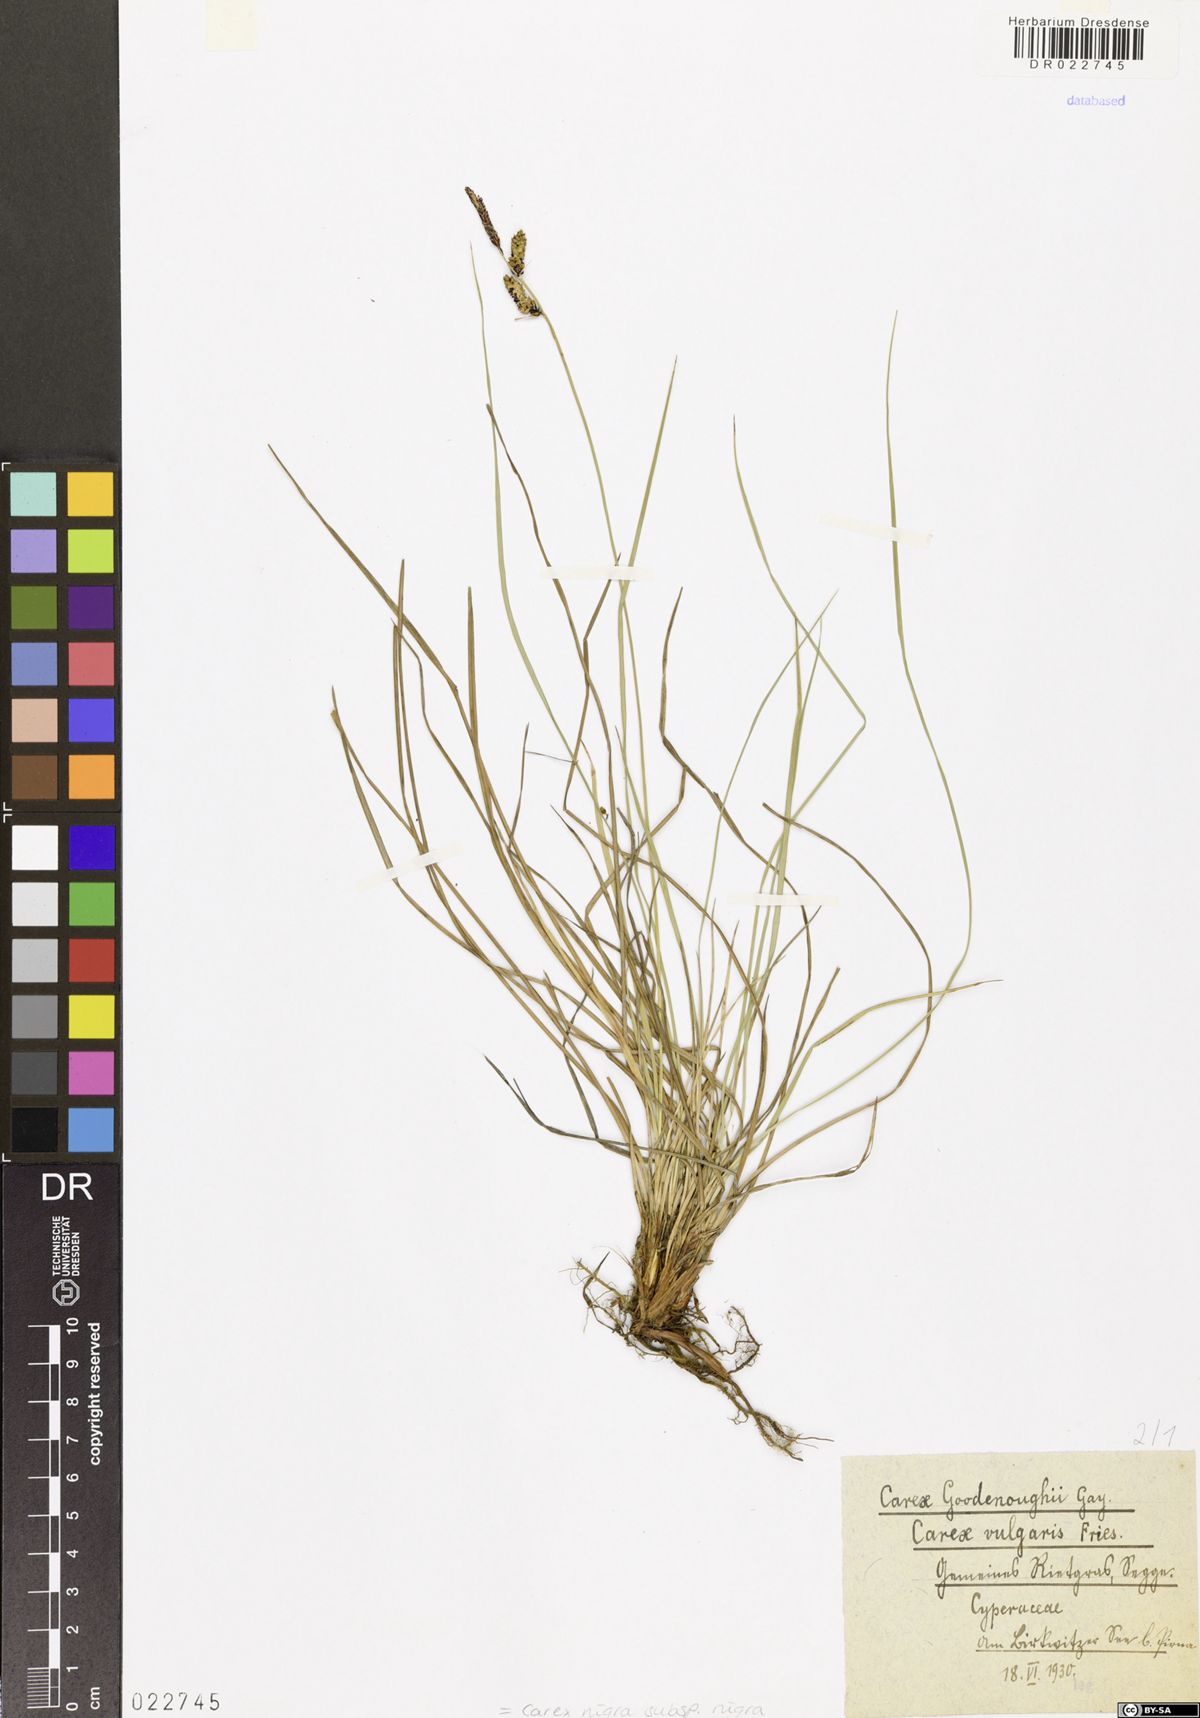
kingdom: Plantae
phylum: Tracheophyta
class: Liliopsida
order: Poales
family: Cyperaceae
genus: Carex
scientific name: Carex nigra
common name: Common sedge
